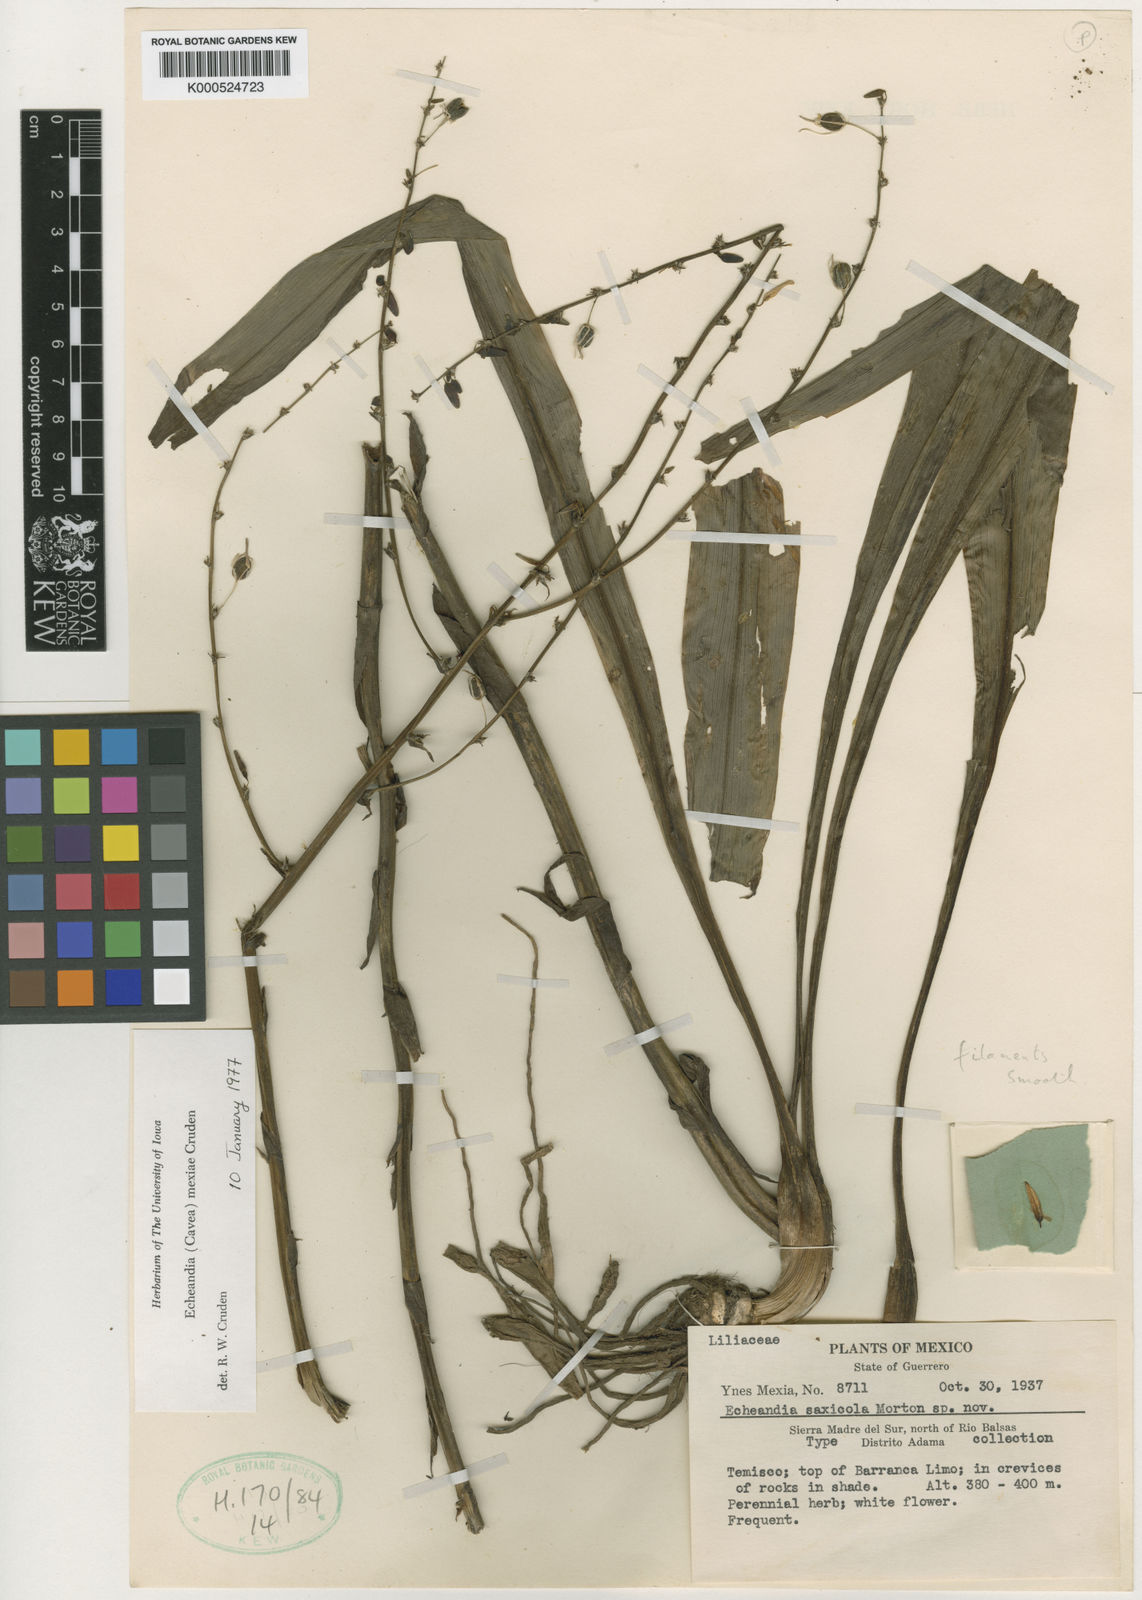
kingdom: Plantae
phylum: Tracheophyta
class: Liliopsida
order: Asparagales
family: Asparagaceae
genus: Echeandia
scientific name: Echeandia mexiae
